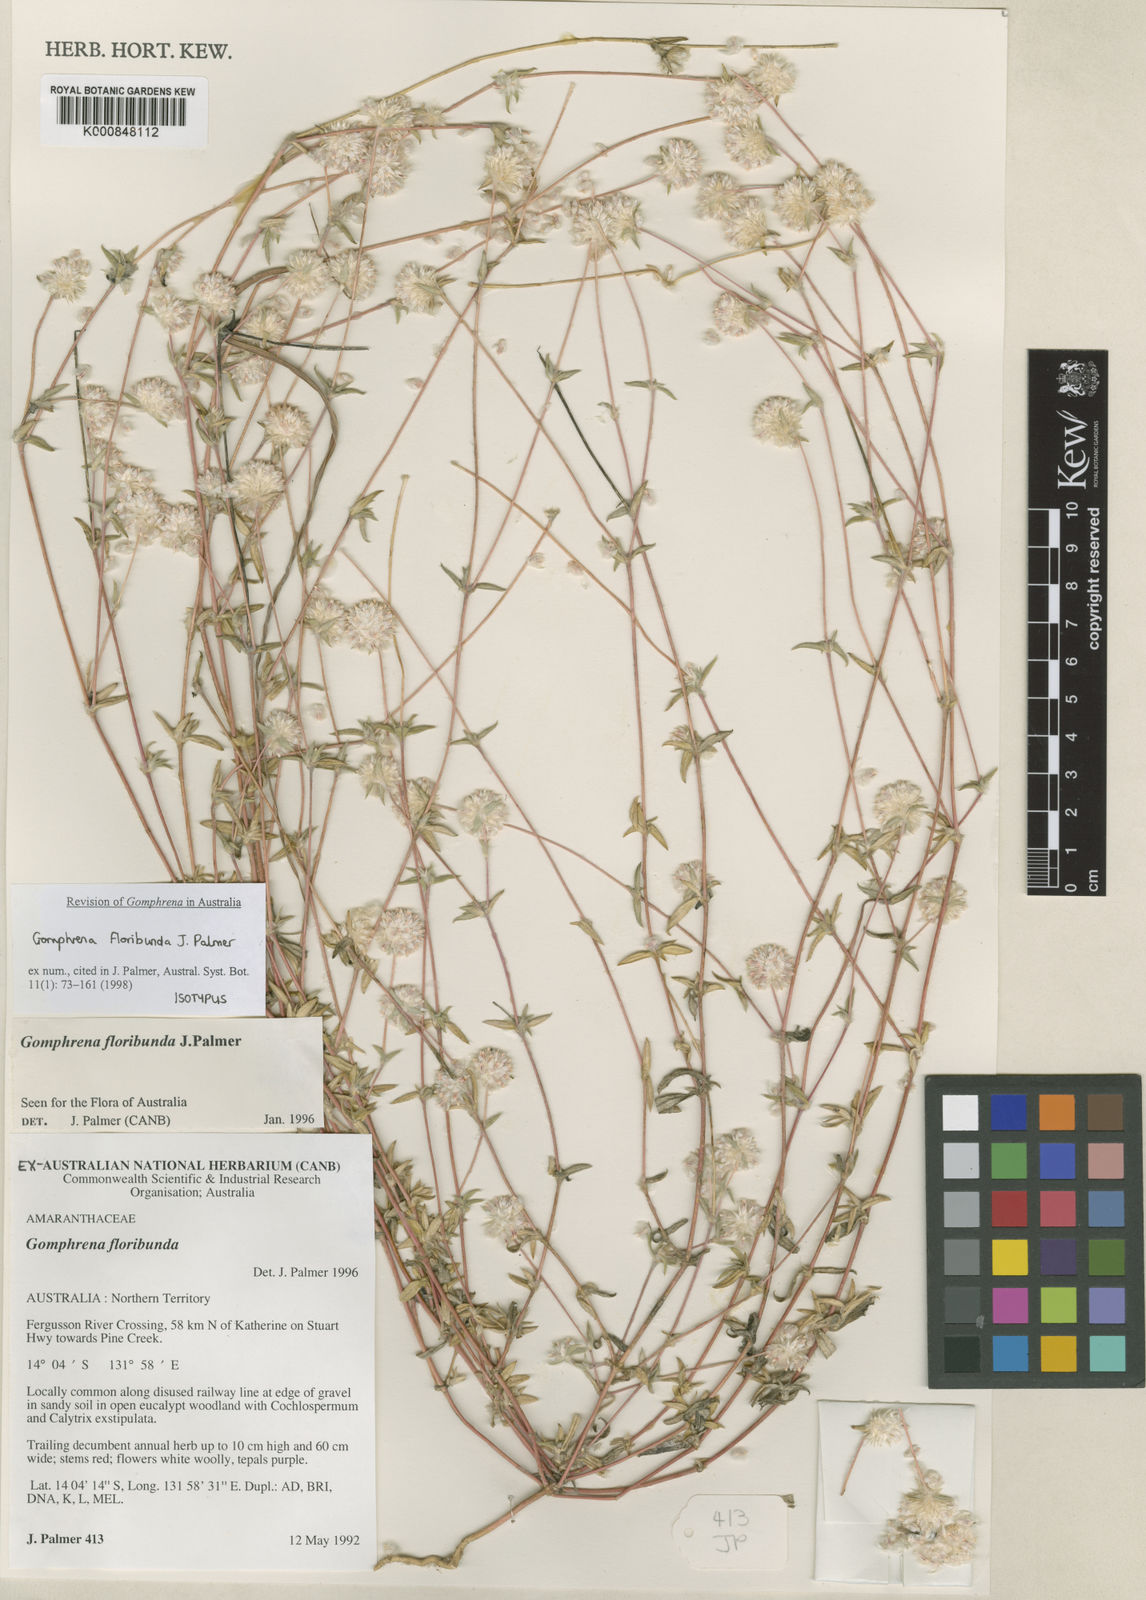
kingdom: Plantae
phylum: Tracheophyta
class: Magnoliopsida
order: Caryophyllales
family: Amaranthaceae
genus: Gomphrena
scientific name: Gomphrena floribunda
